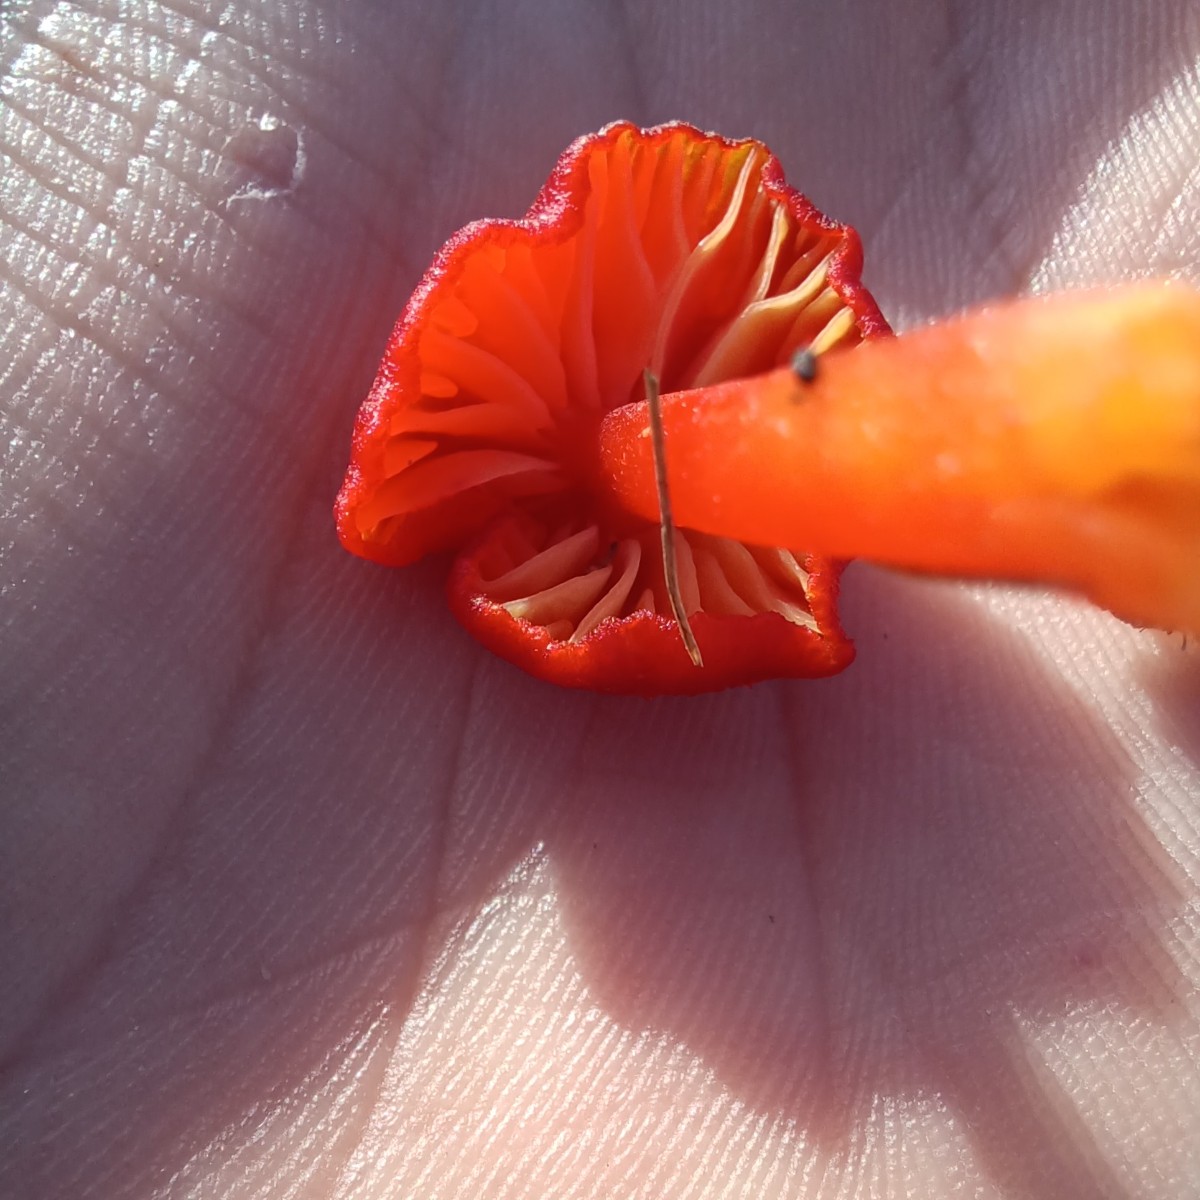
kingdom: Fungi
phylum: Basidiomycota
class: Agaricomycetes
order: Agaricales
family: Hygrophoraceae
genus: Hygrocybe
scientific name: Hygrocybe helobia
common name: hvidløgs-vokshat
